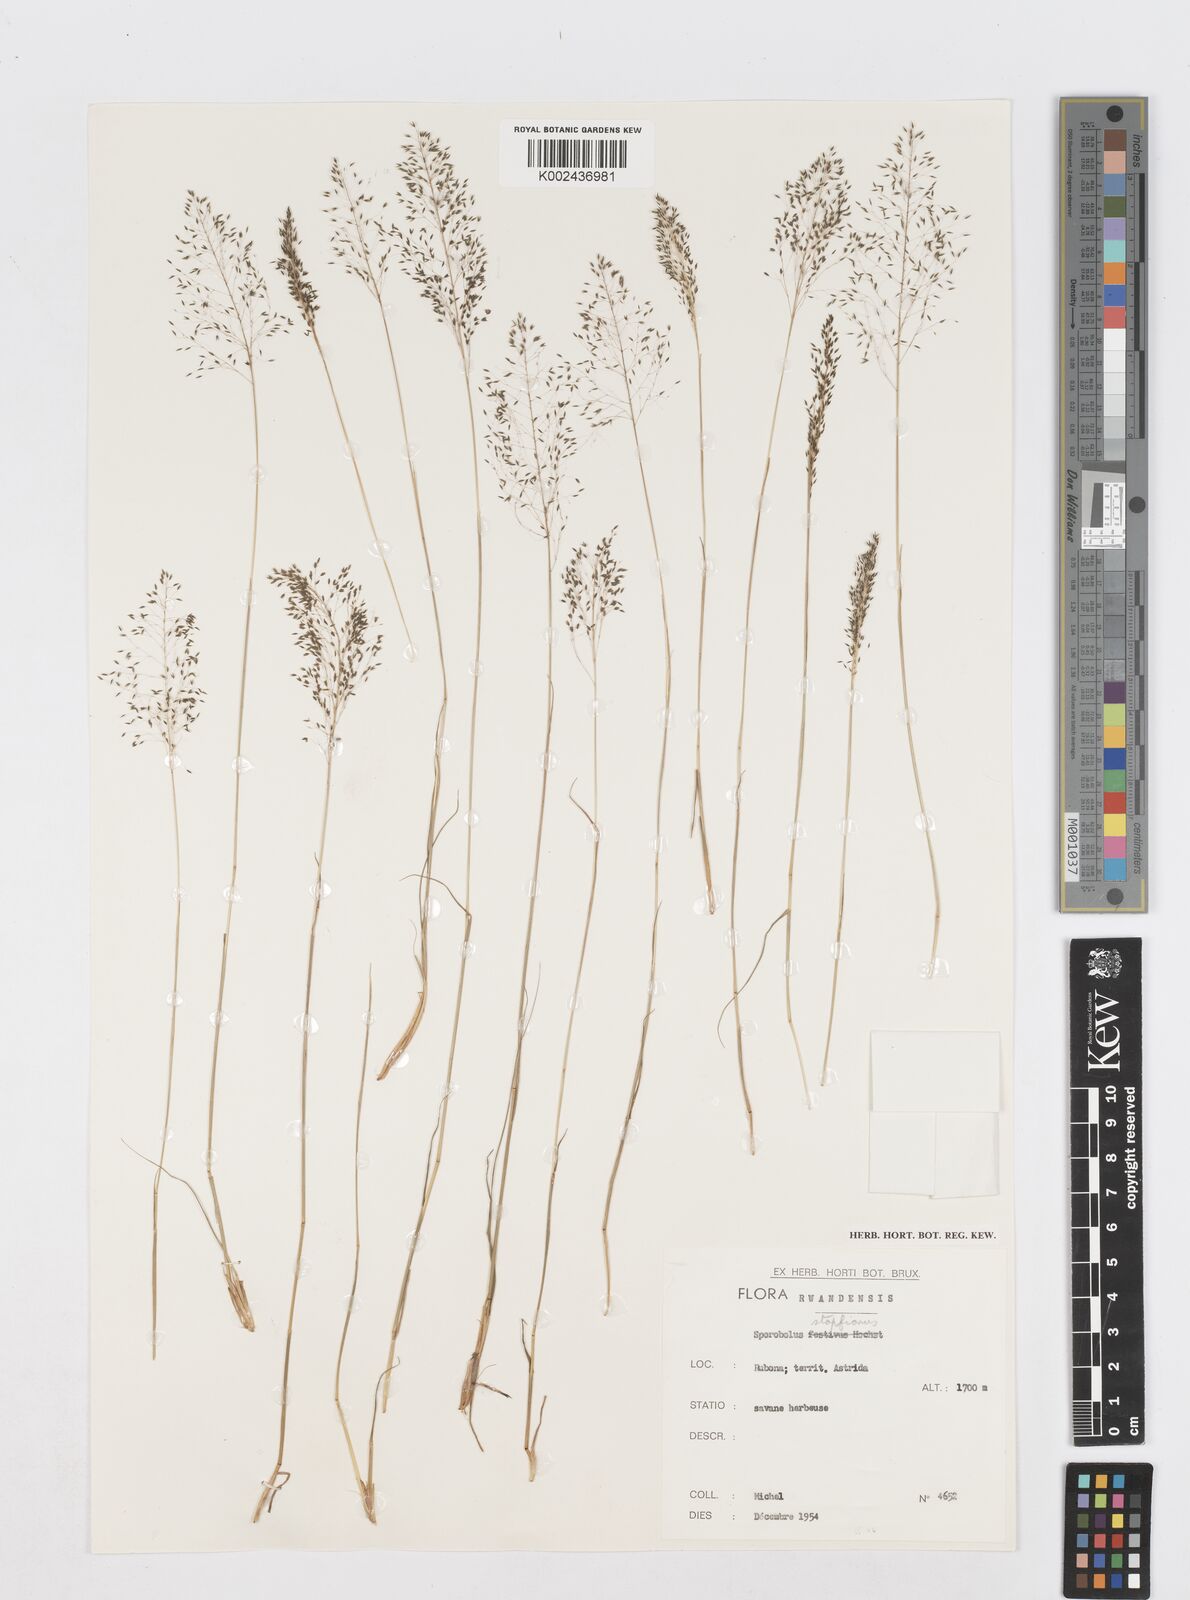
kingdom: Plantae
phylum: Tracheophyta
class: Liliopsida
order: Poales
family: Poaceae
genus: Sporobolus
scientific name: Sporobolus stapfianus
